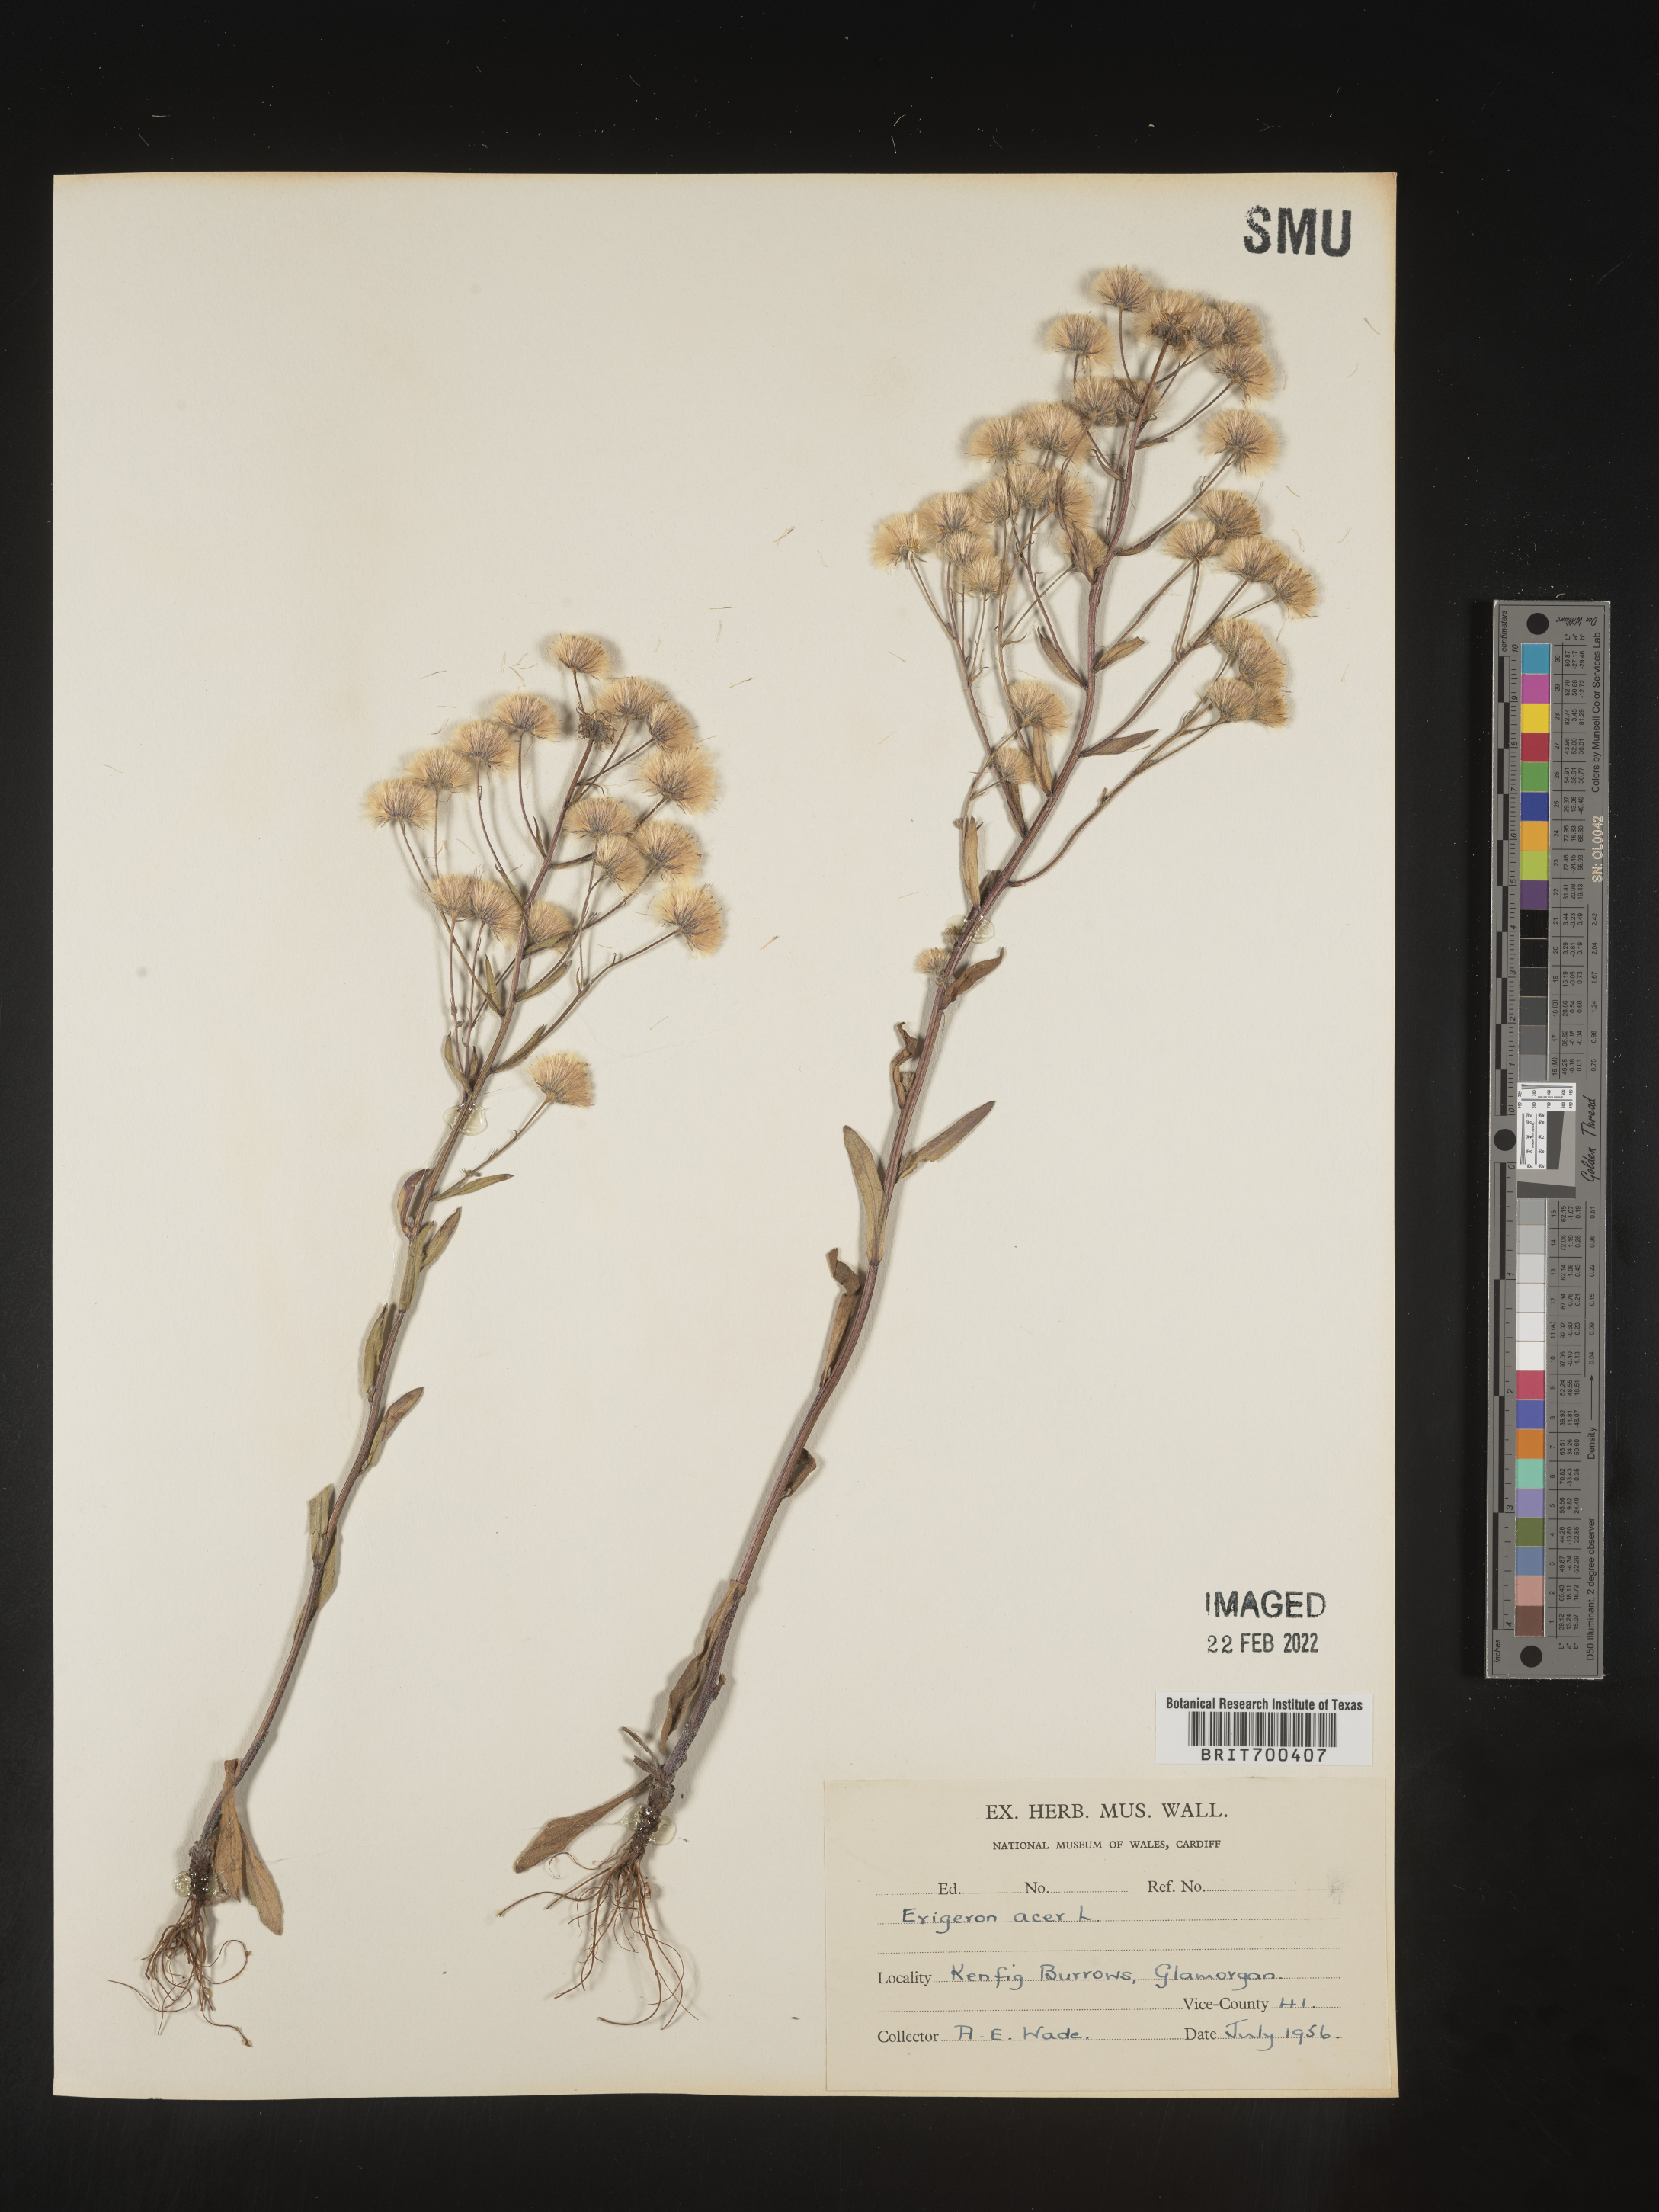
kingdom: Plantae
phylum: Tracheophyta
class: Magnoliopsida
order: Asterales
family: Asteraceae
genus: Erigeron
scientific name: Erigeron
